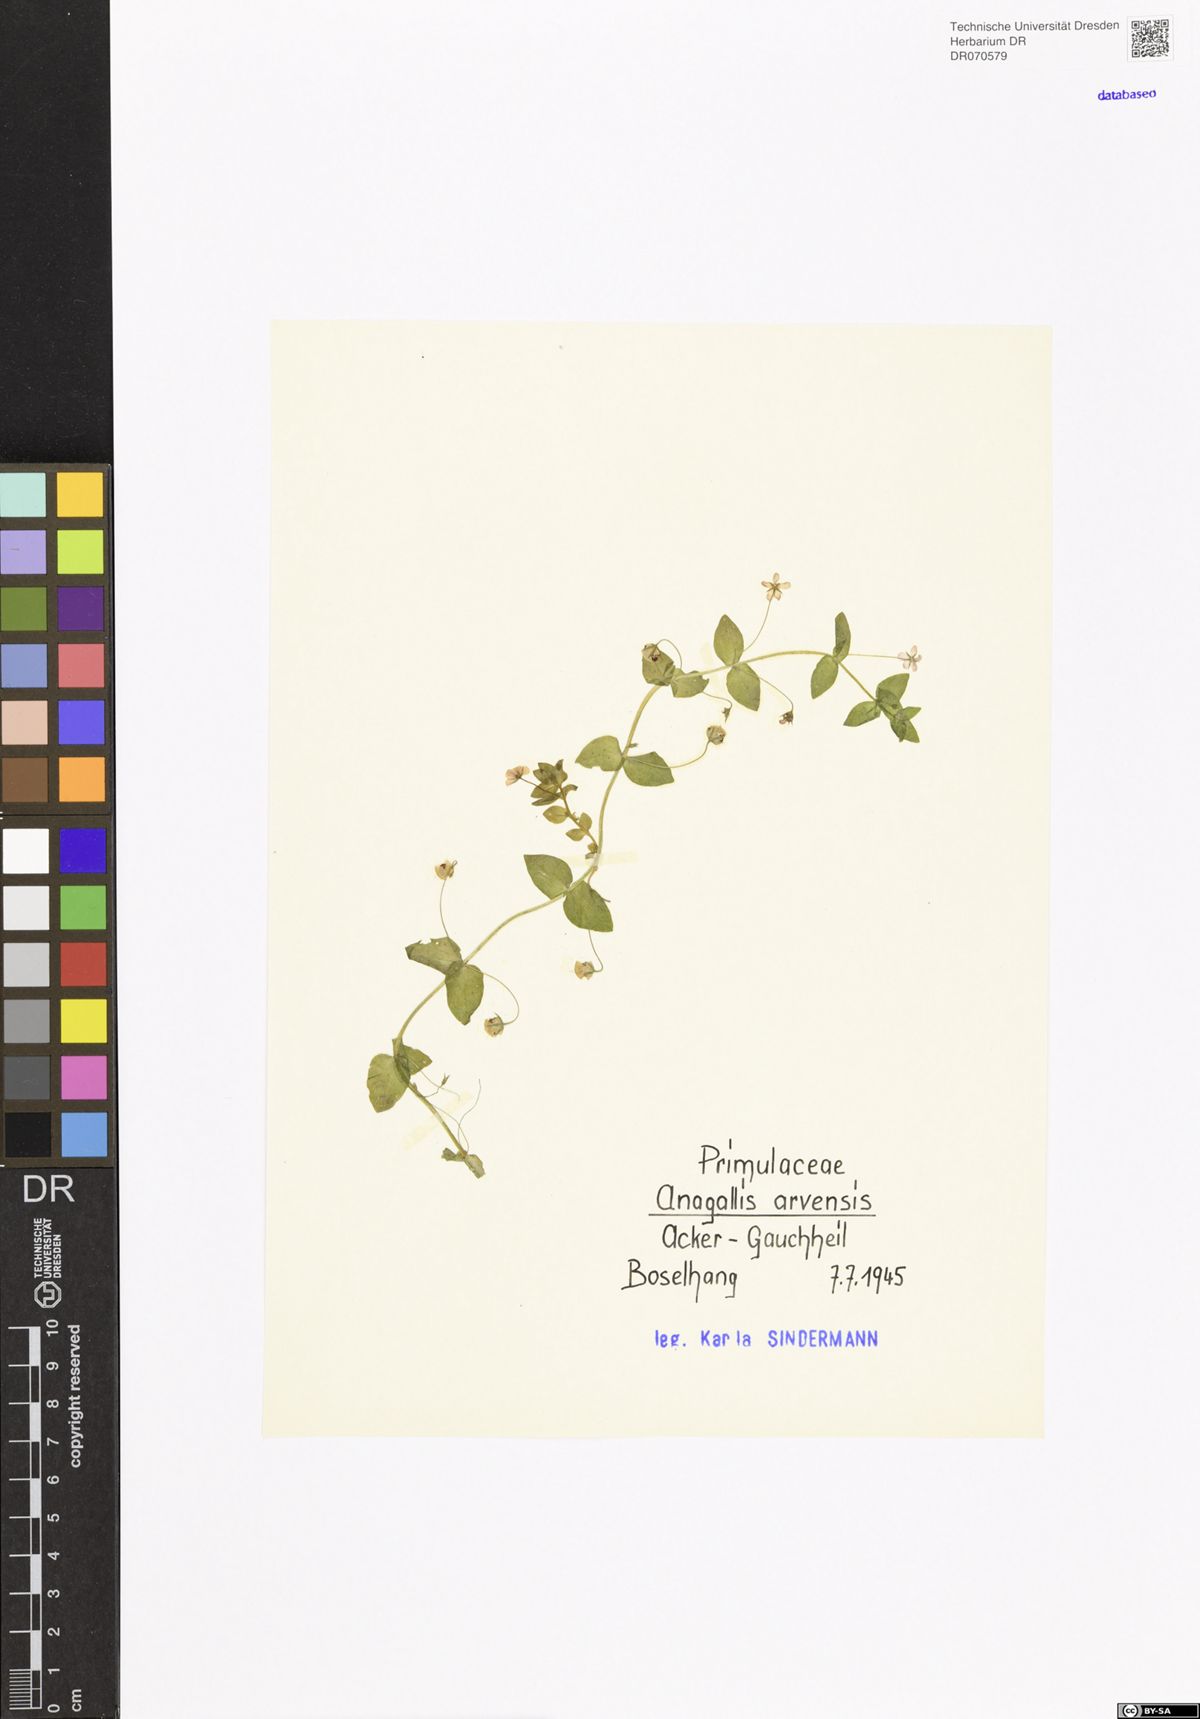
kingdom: Plantae
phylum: Tracheophyta
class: Magnoliopsida
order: Ericales
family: Primulaceae
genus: Lysimachia
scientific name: Lysimachia arvensis
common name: Scarlet pimpernel
